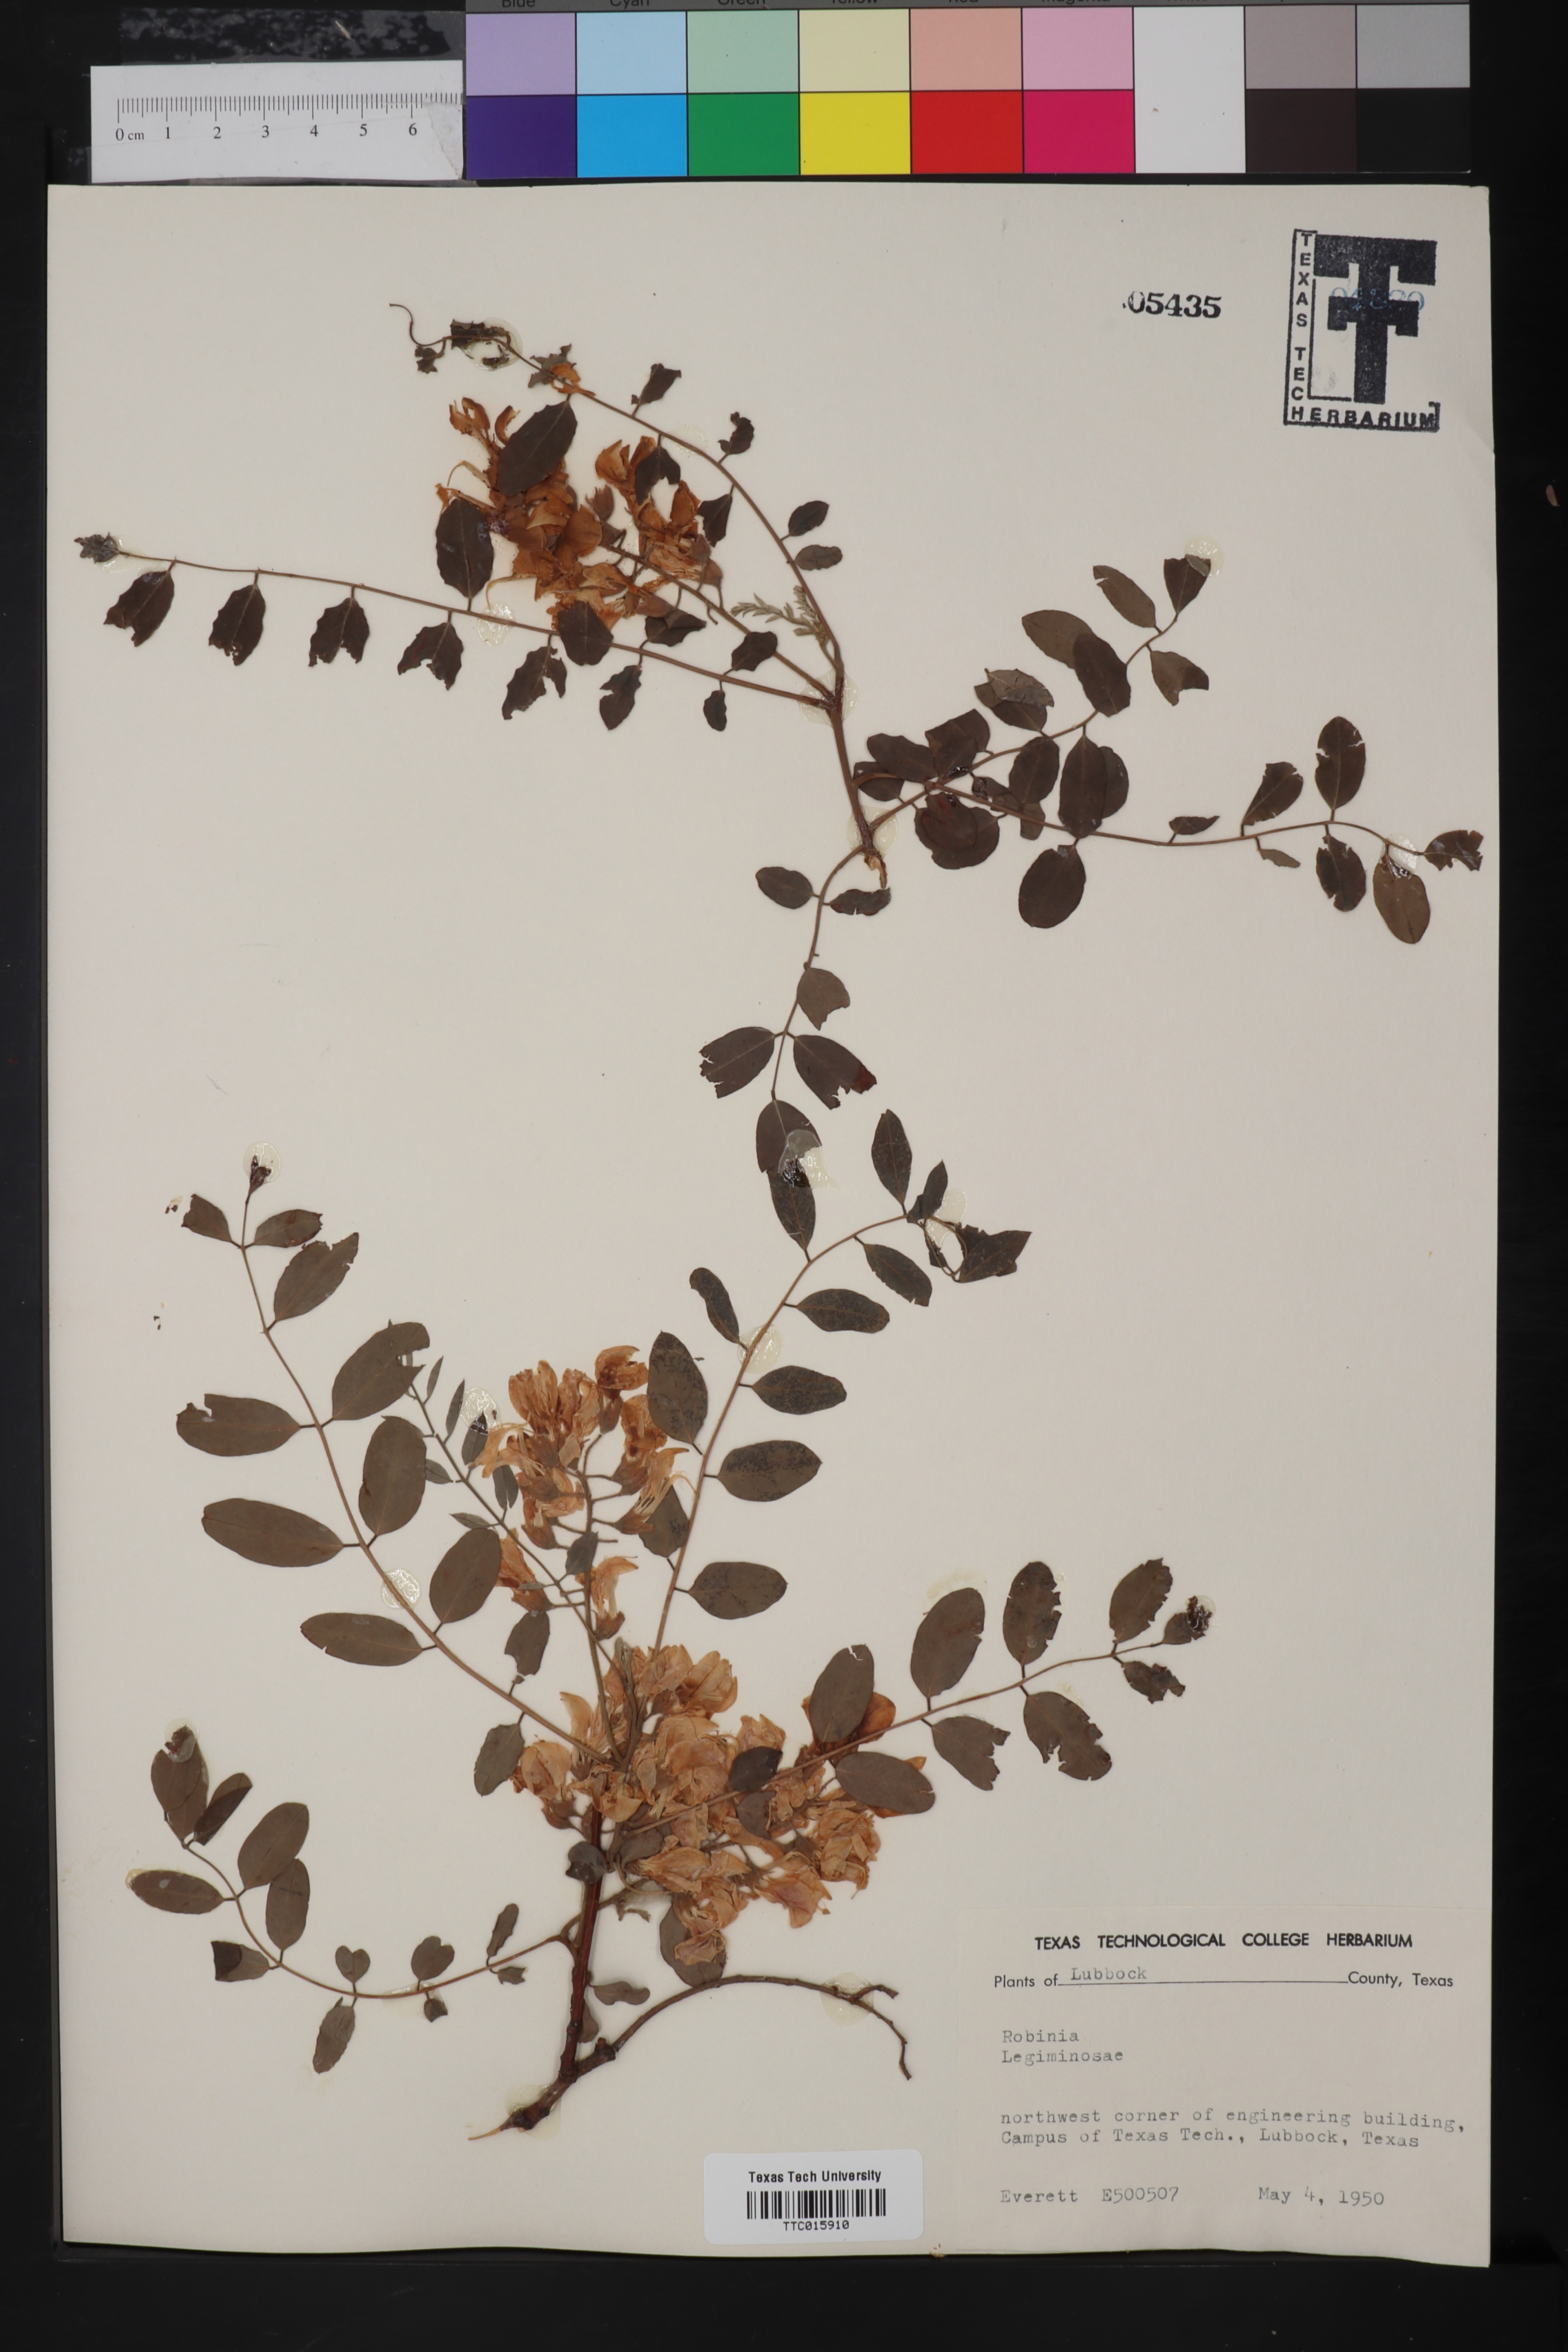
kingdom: Plantae
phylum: Tracheophyta
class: Magnoliopsida
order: Fabales
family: Fabaceae
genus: Robinia
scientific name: Robinia
